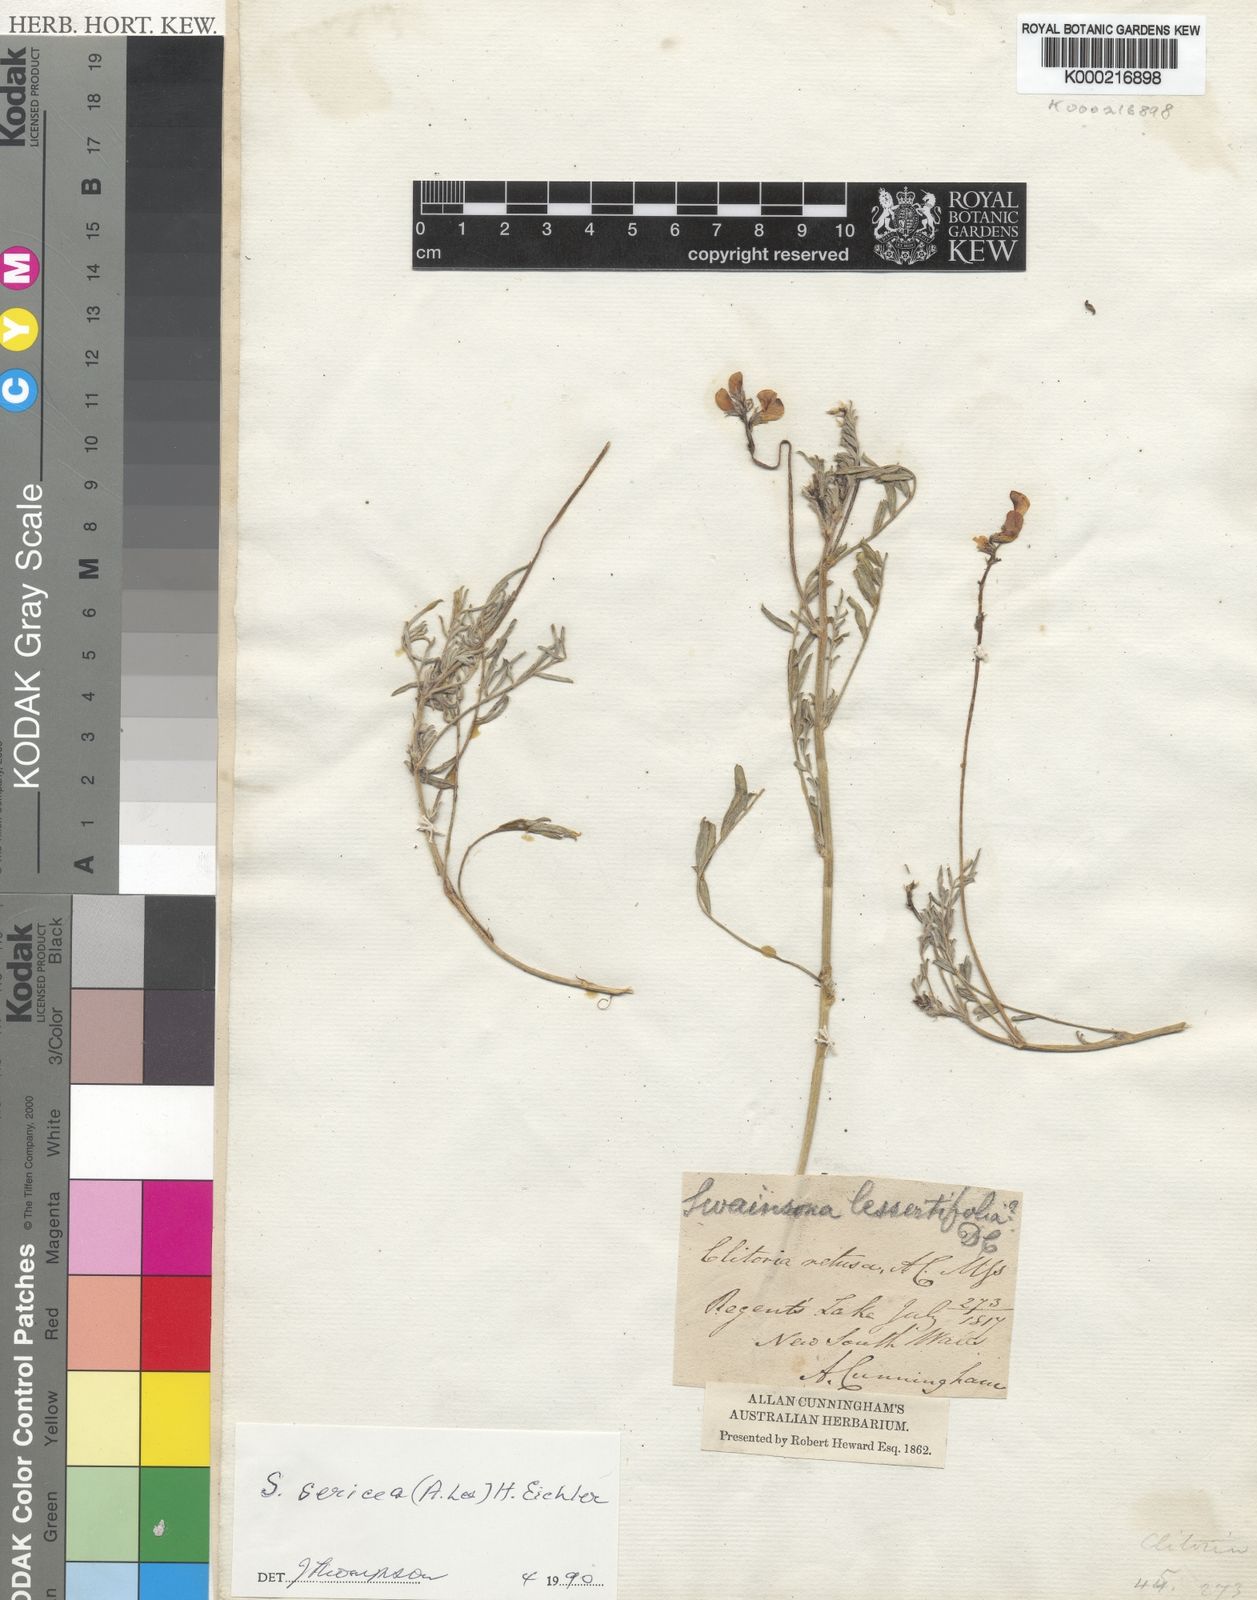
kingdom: Plantae
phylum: Tracheophyta
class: Magnoliopsida
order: Fabales
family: Fabaceae
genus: Swainsona
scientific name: Swainsona sericea
